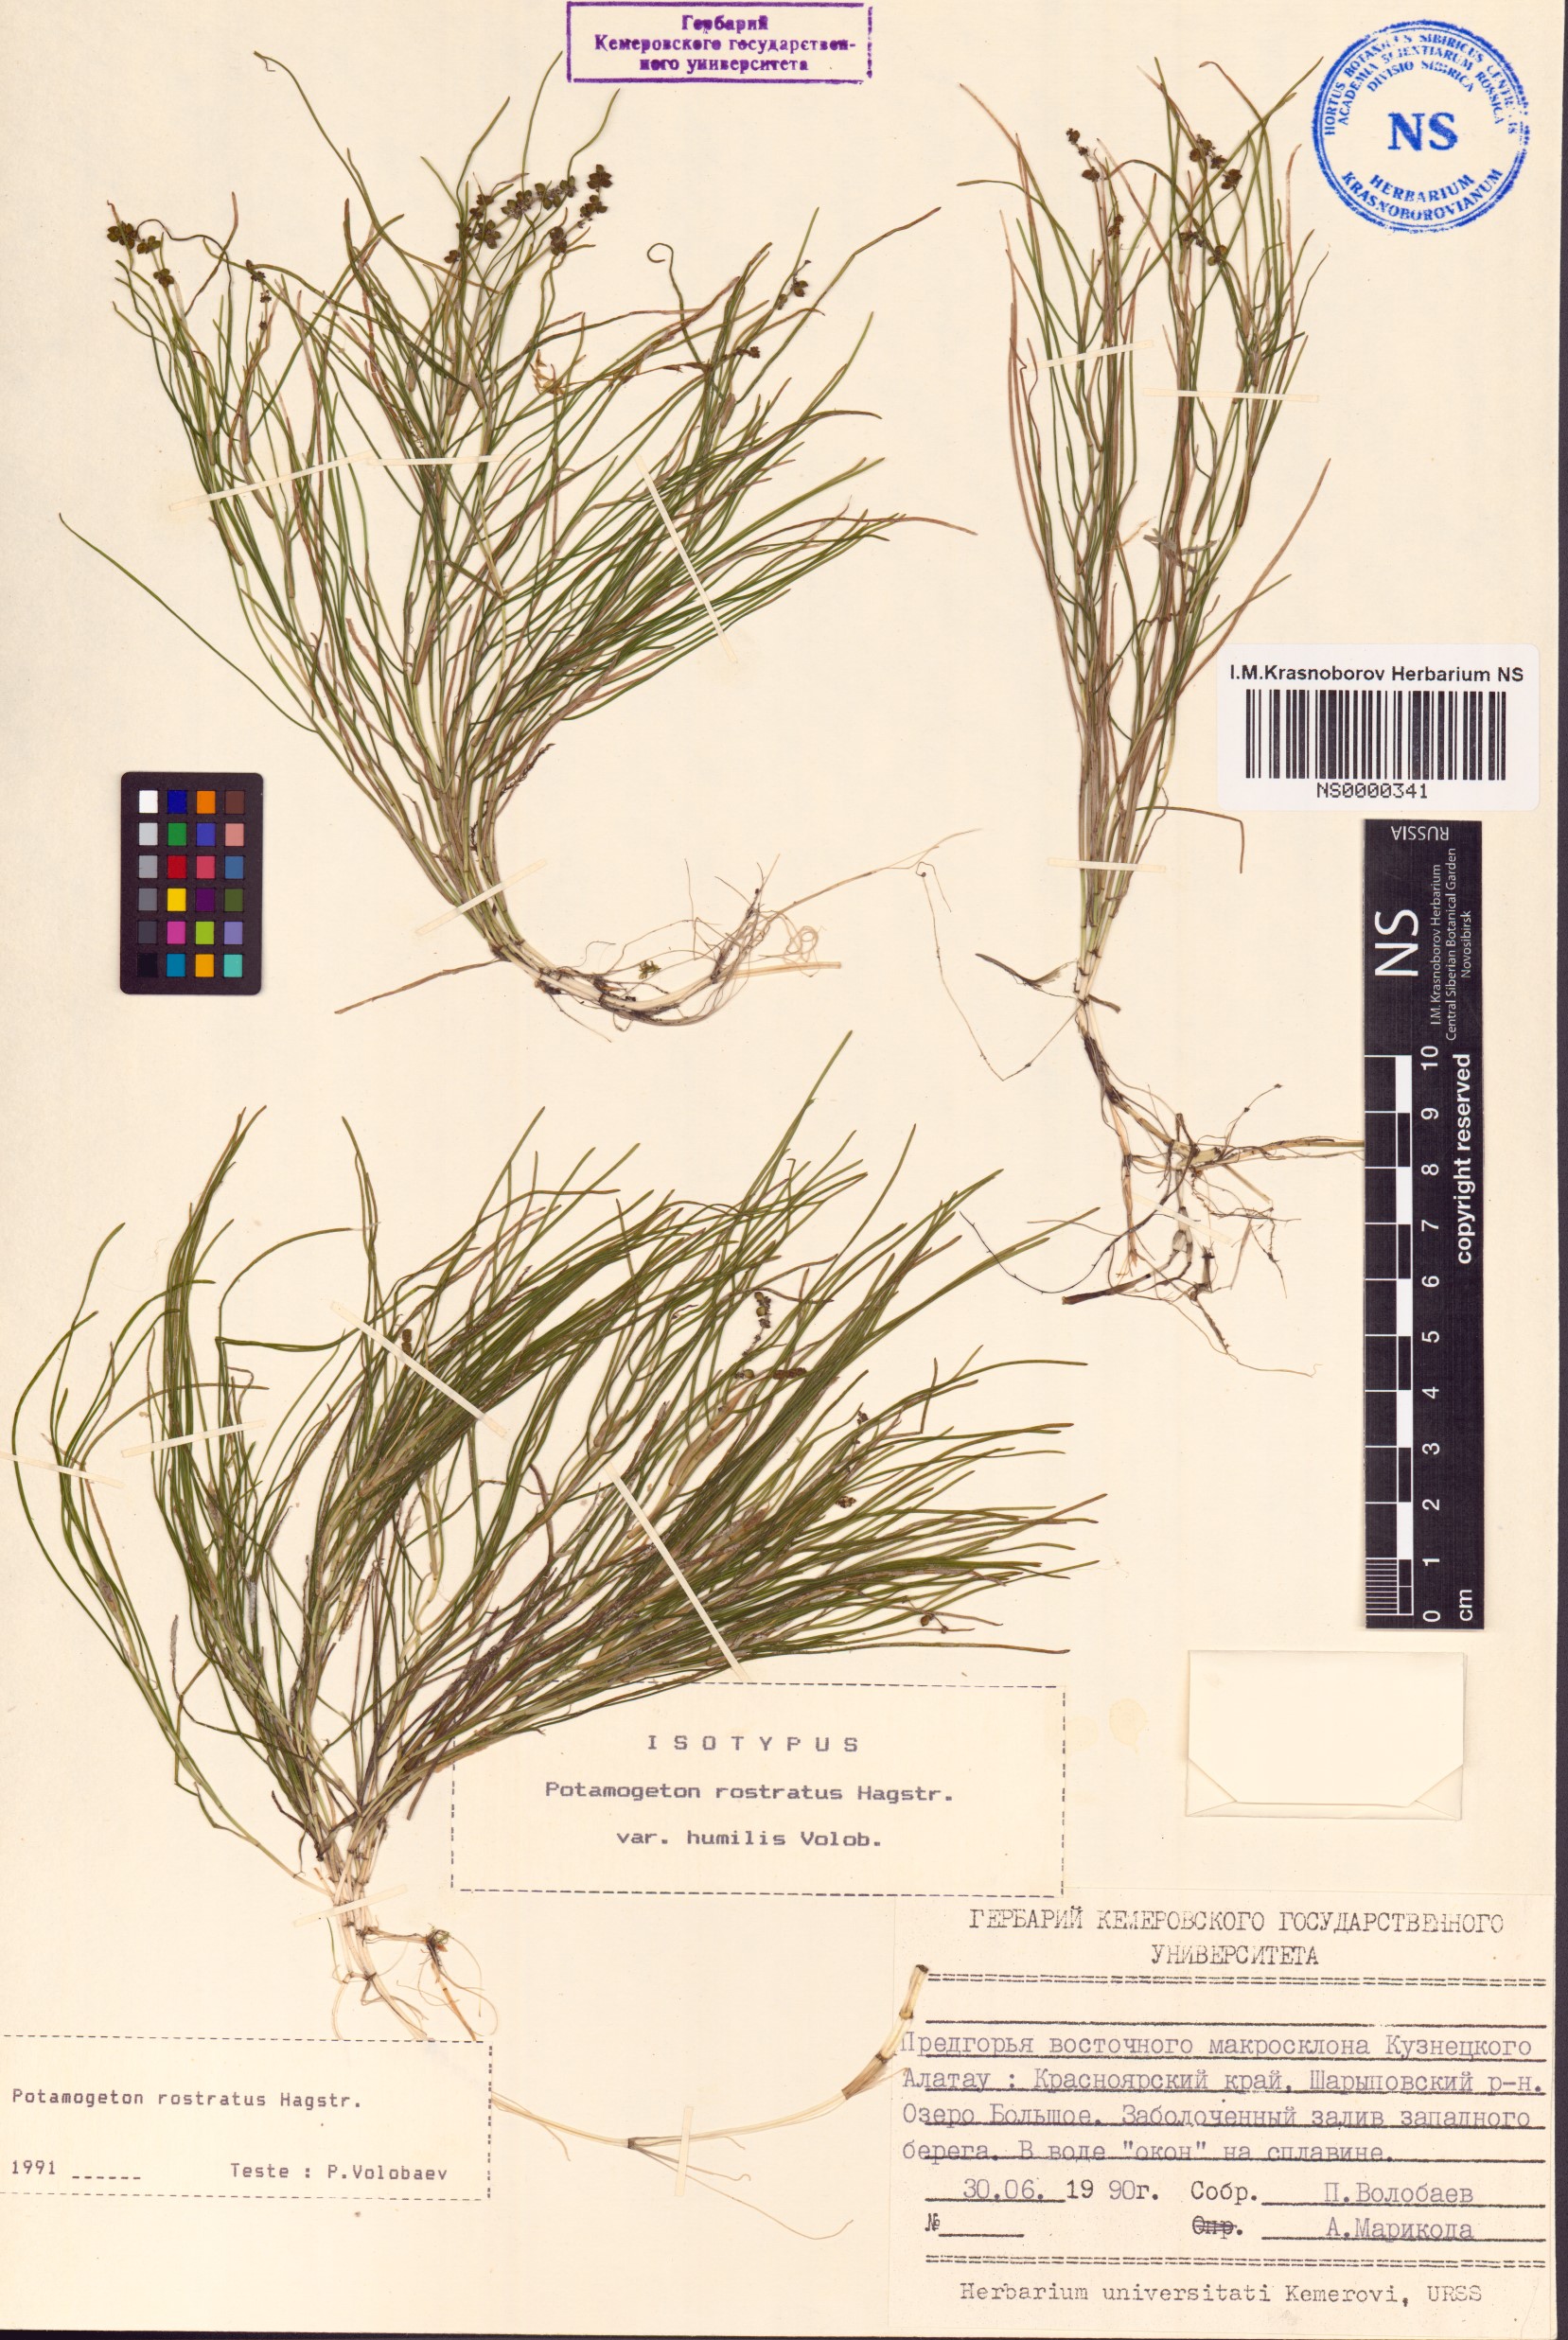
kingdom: Plantae
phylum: Tracheophyta
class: Liliopsida
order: Alismatales
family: Potamogetonaceae
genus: Stuckenia
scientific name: Stuckenia filiformis
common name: Alpine thread-leaved pondweed
